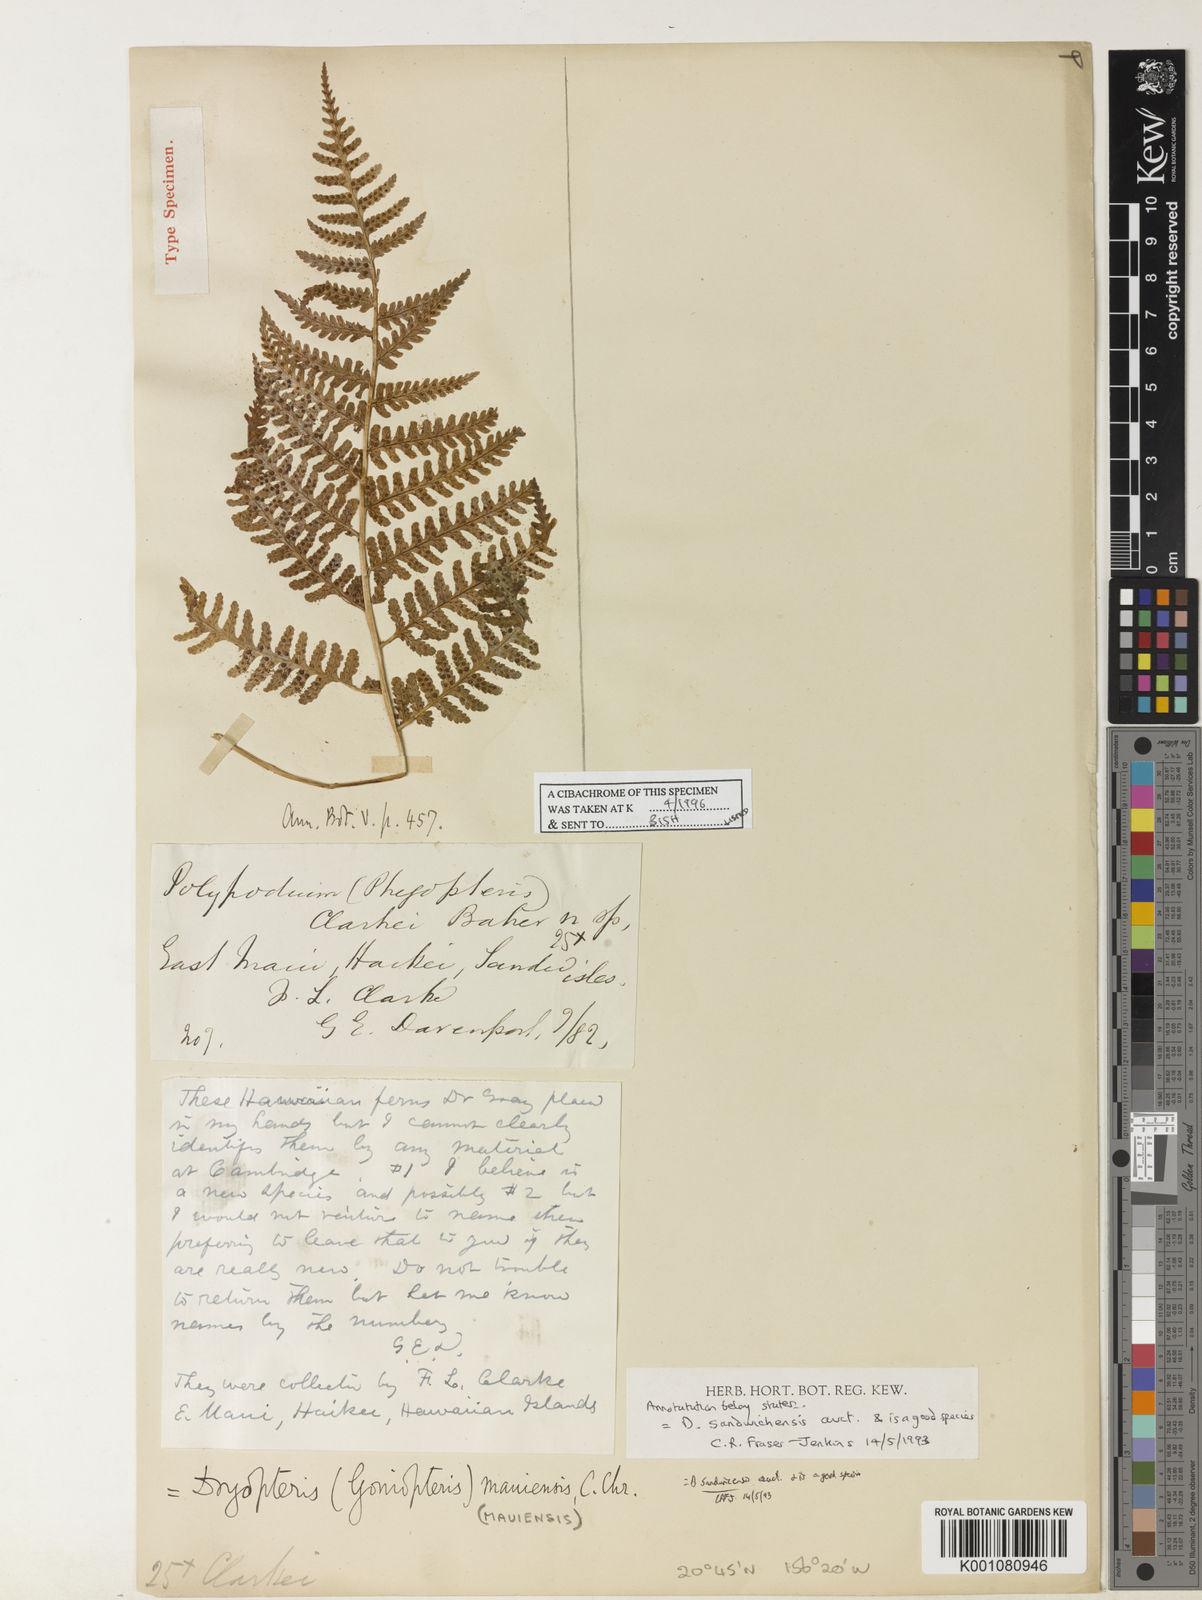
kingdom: Plantae
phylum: Tracheophyta
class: Polypodiopsida
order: Polypodiales
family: Dryopteridaceae
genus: Dryopteris
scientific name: Dryopteris sandwicensis
